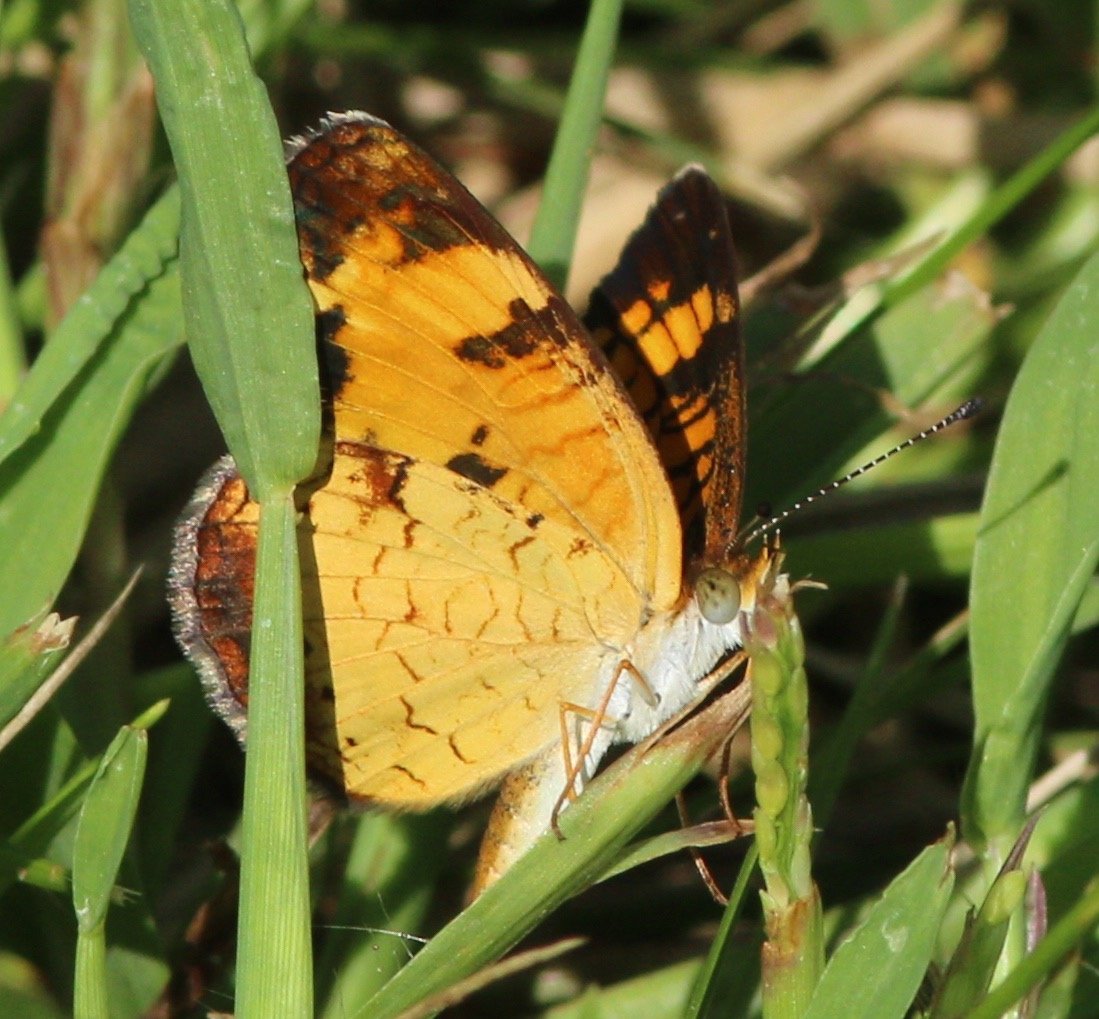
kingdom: Animalia
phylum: Arthropoda
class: Insecta
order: Lepidoptera
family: Nymphalidae
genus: Phyciodes
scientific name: Phyciodes tharos
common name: Pearl Crescent
